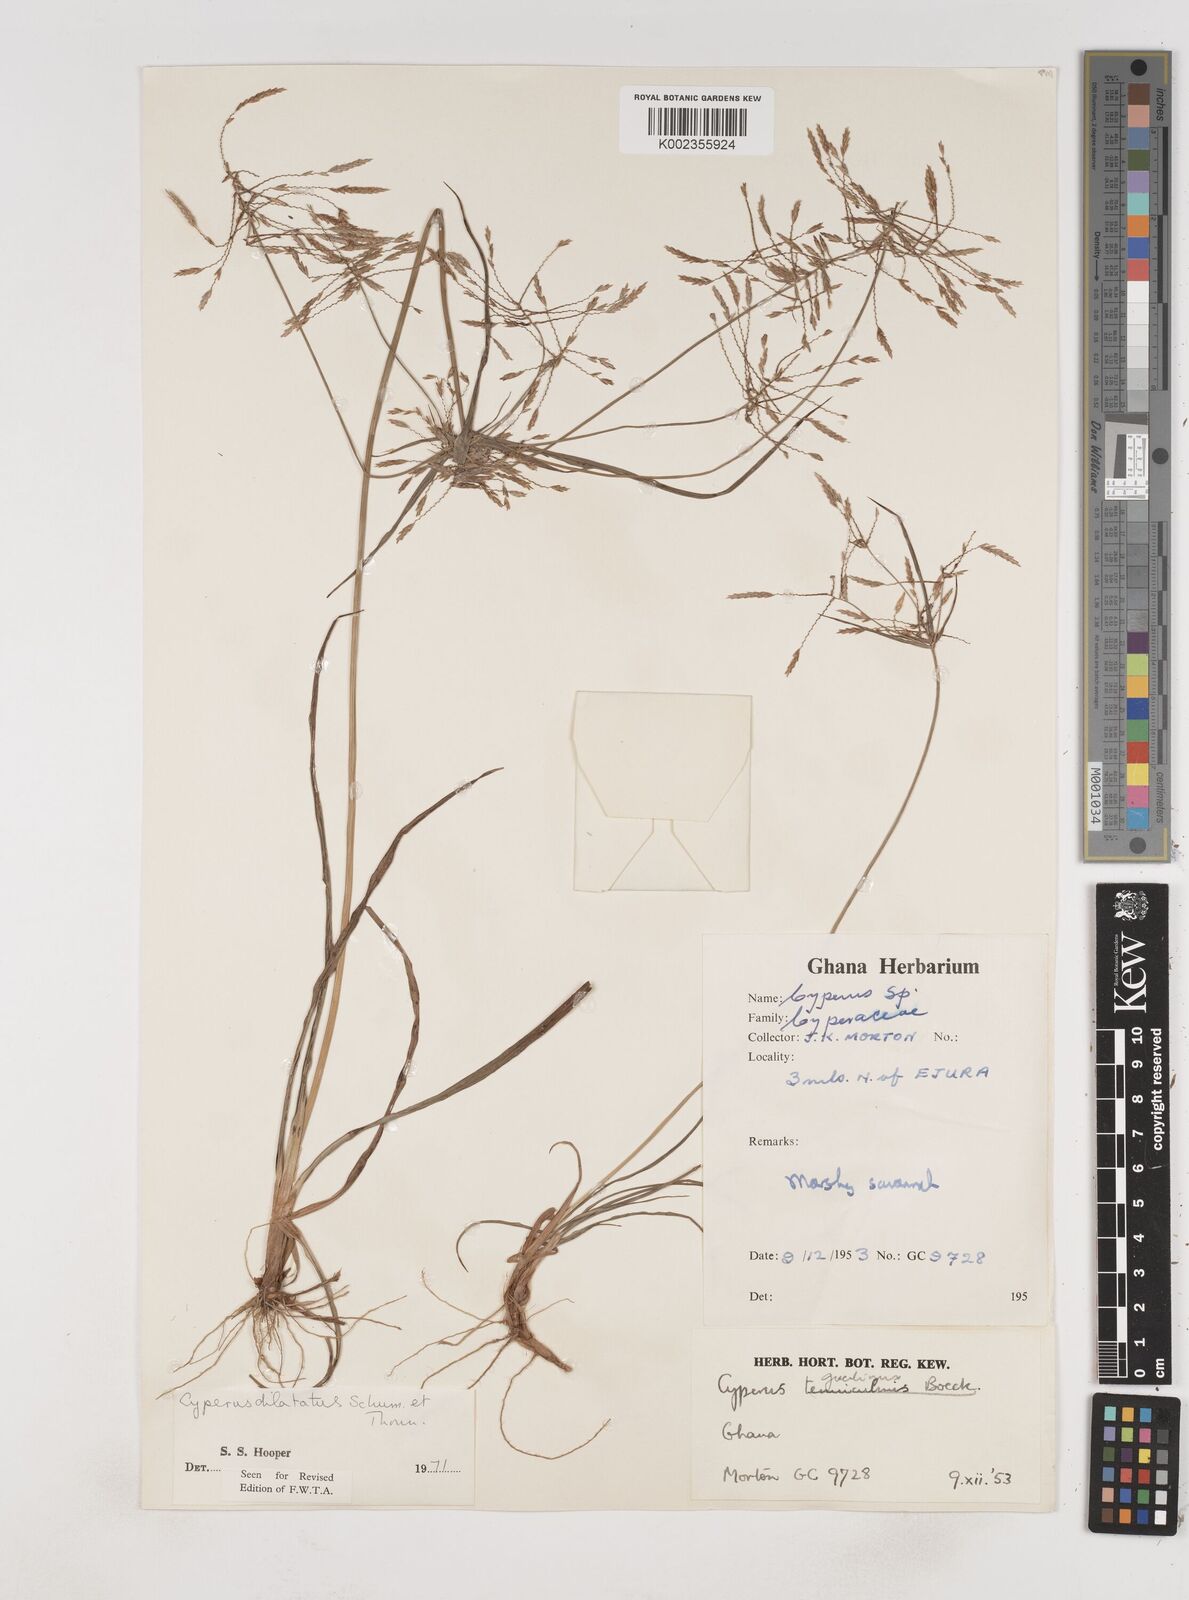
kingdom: Plantae
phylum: Tracheophyta
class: Liliopsida
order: Poales
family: Cyperaceae
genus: Cyperus
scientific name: Cyperus dilatatus
